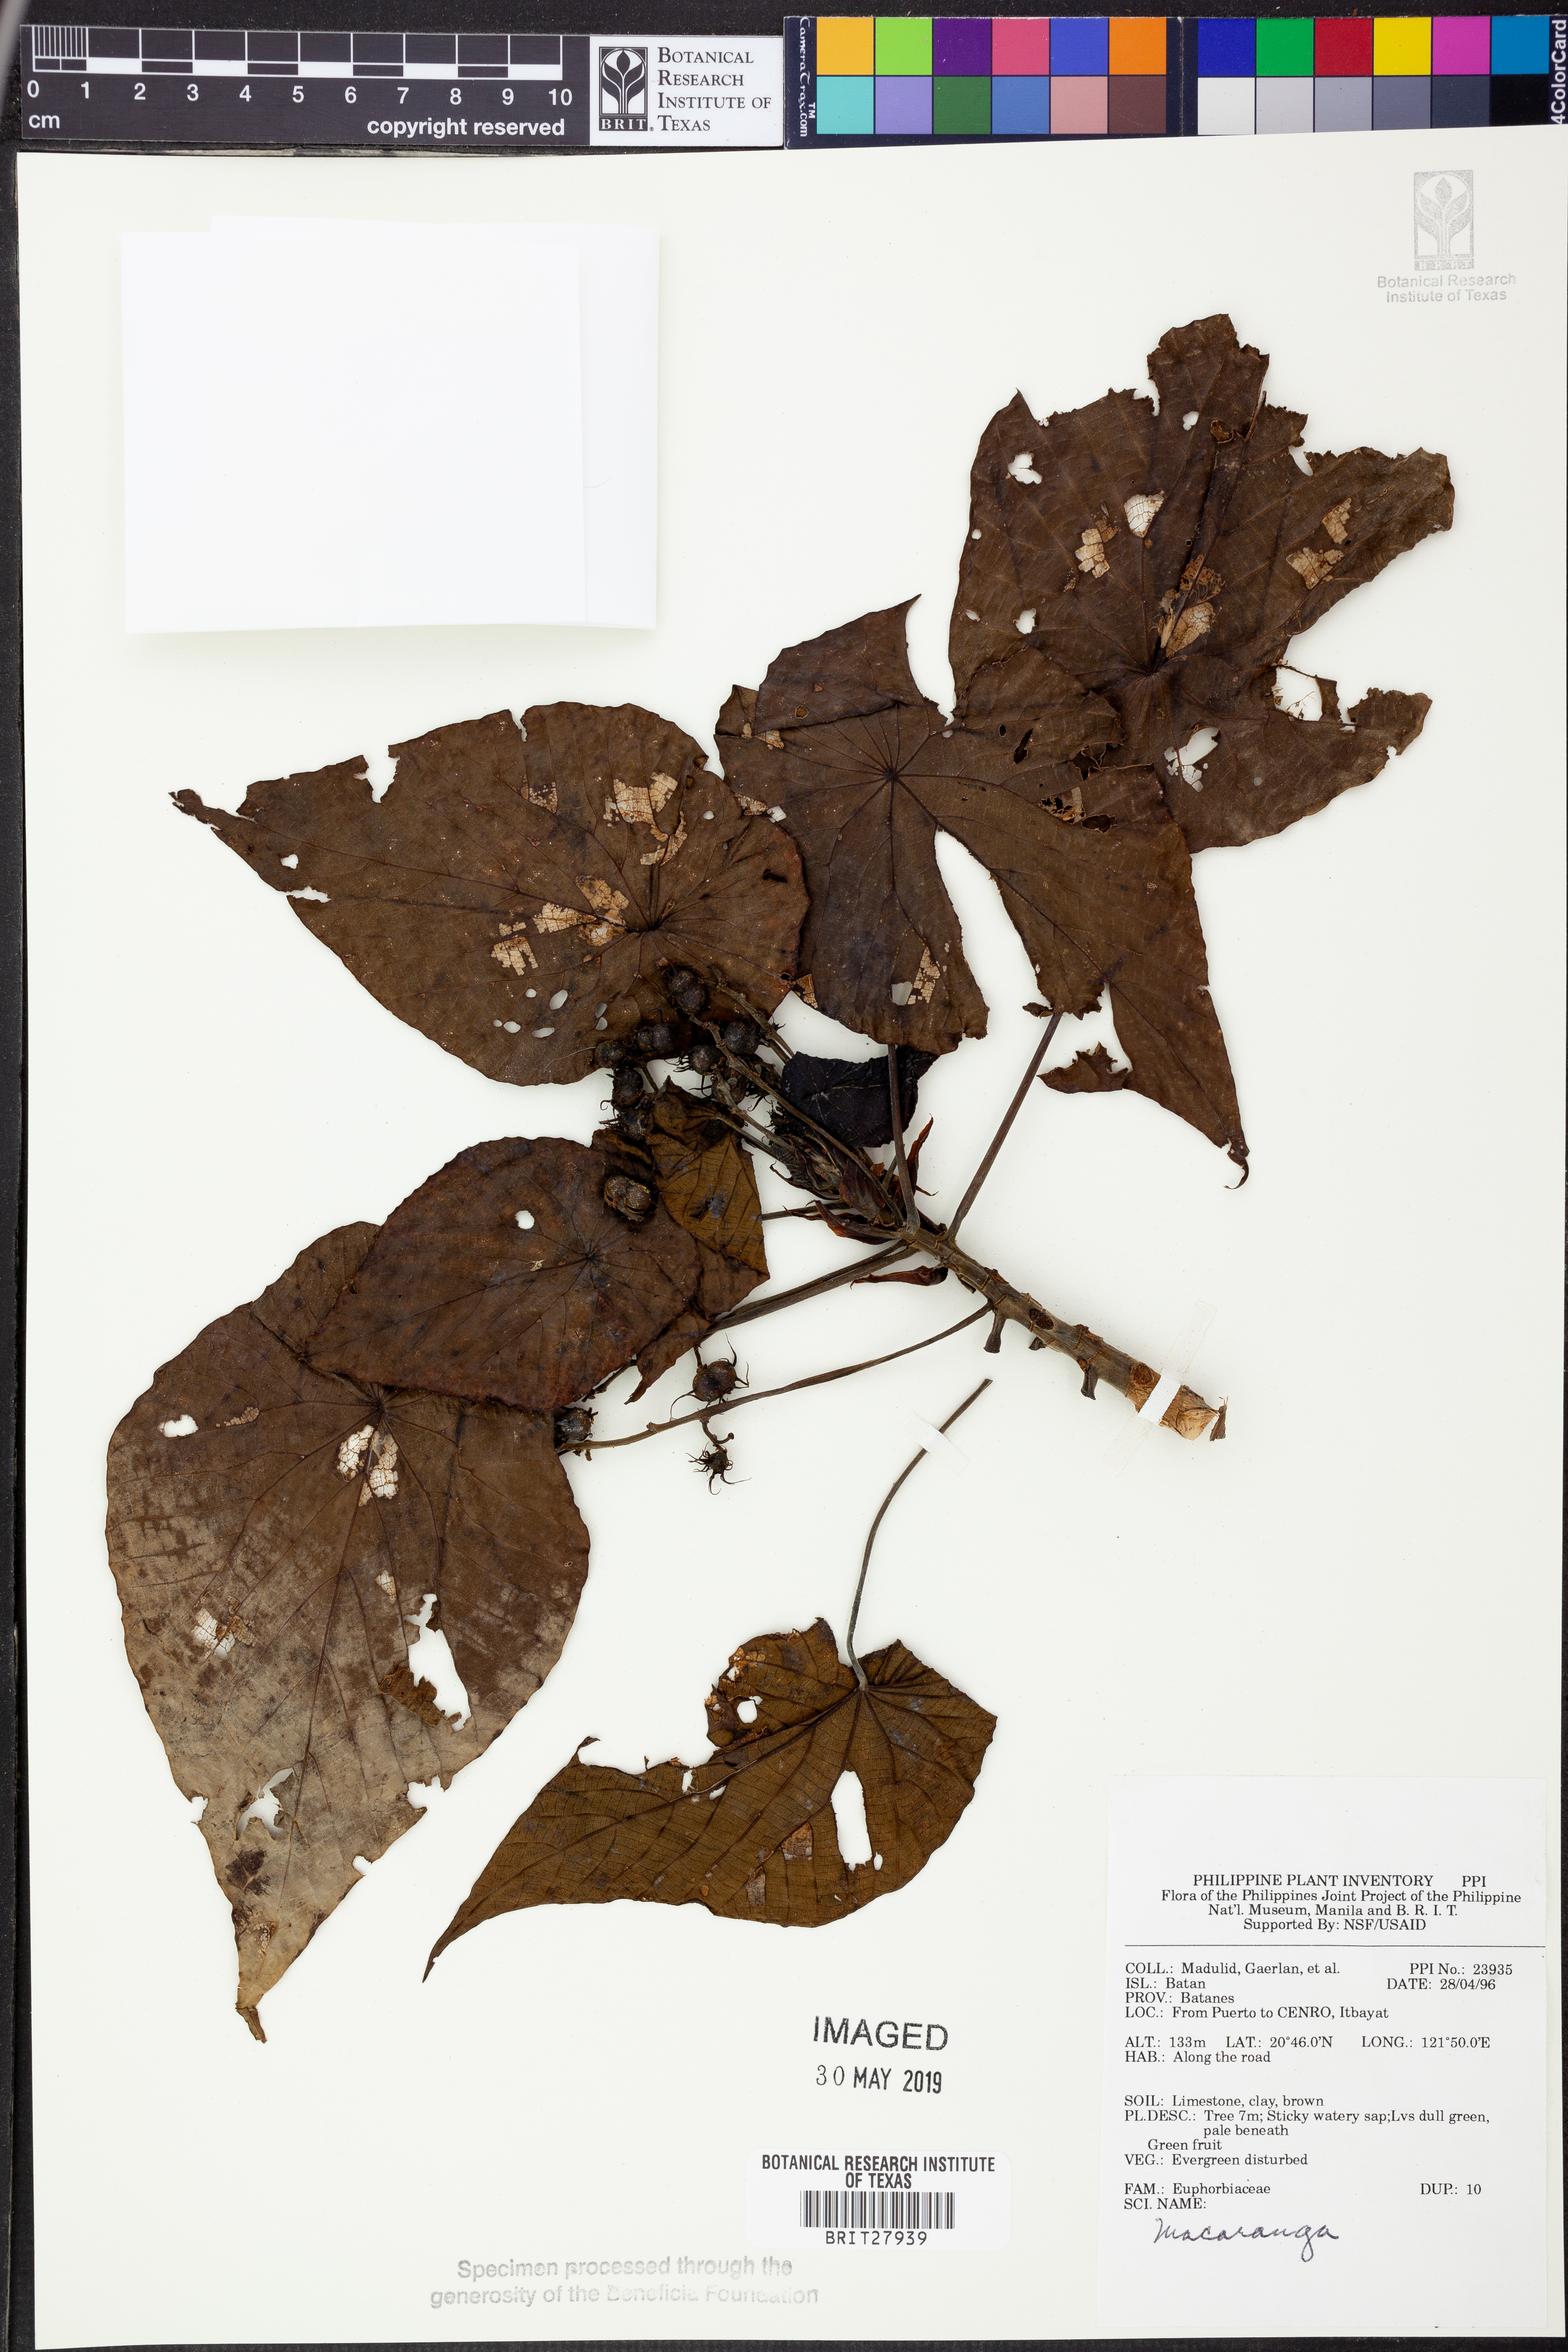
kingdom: Plantae
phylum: Tracheophyta
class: Magnoliopsida
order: Malpighiales
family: Euphorbiaceae
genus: Macaranga
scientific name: Macaranga
